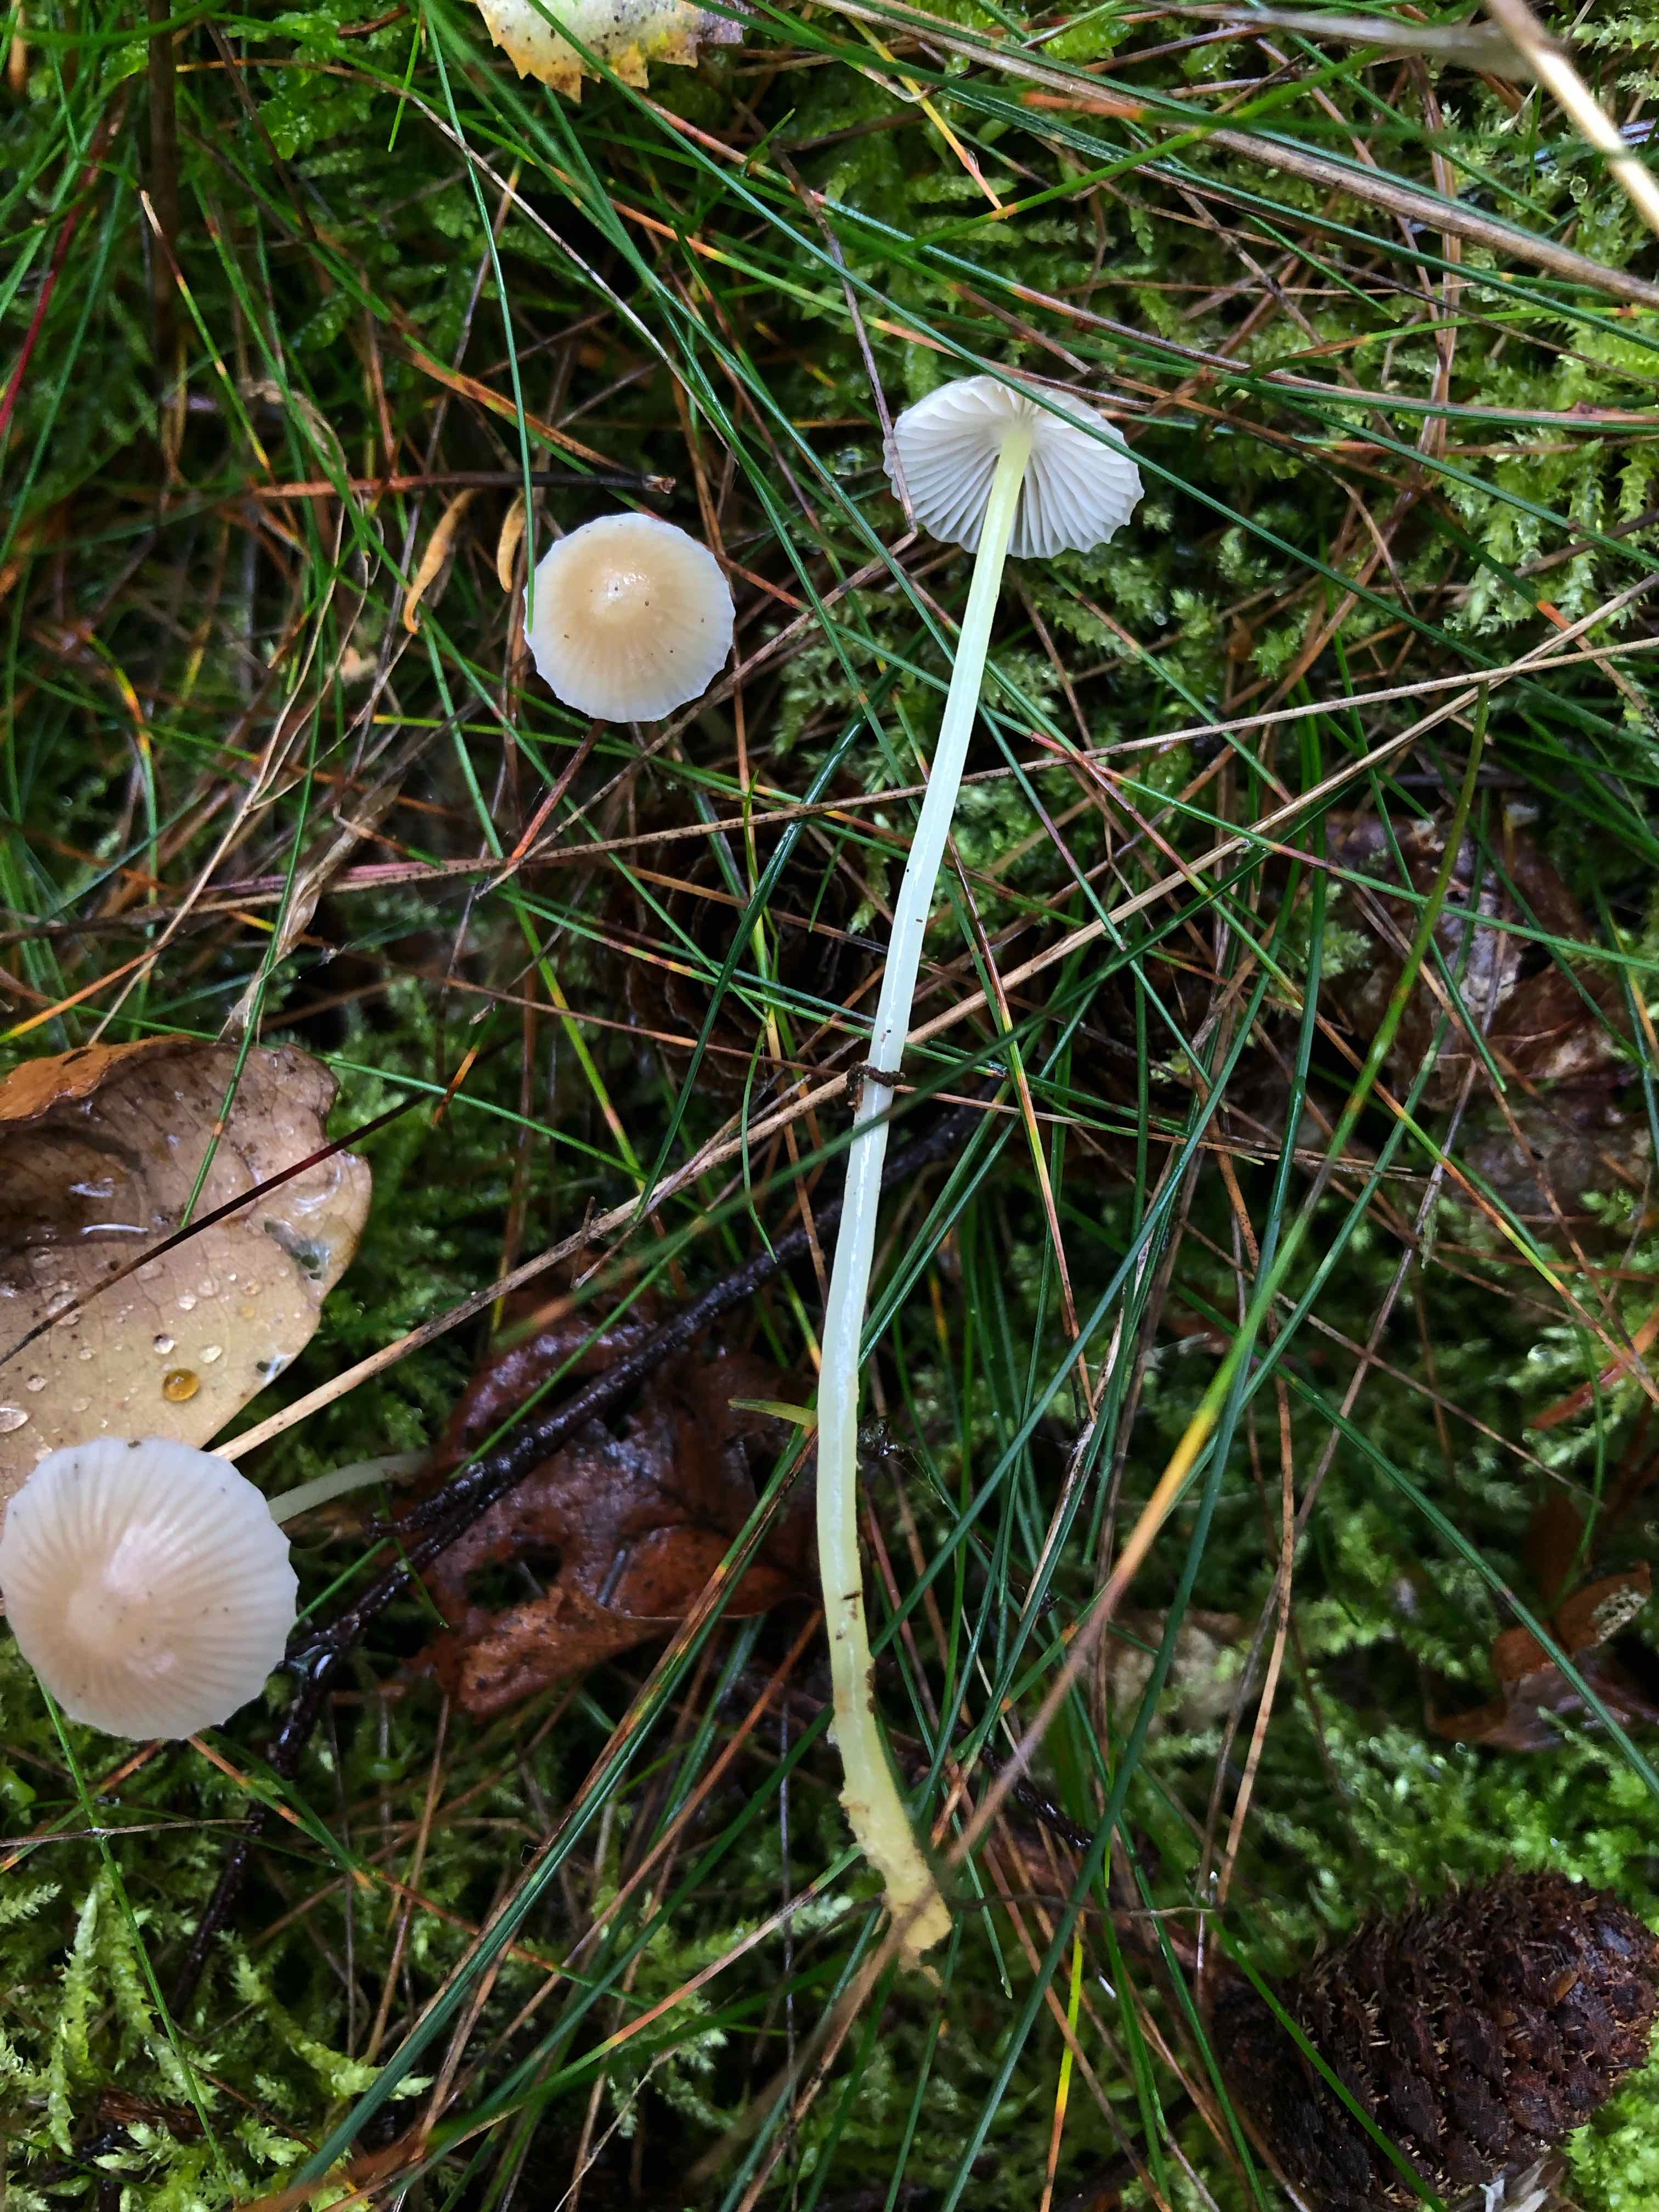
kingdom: Fungi
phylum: Basidiomycota
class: Agaricomycetes
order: Agaricales
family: Mycenaceae
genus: Mycena
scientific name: Mycena epipterygia
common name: gulstokket huesvamp
